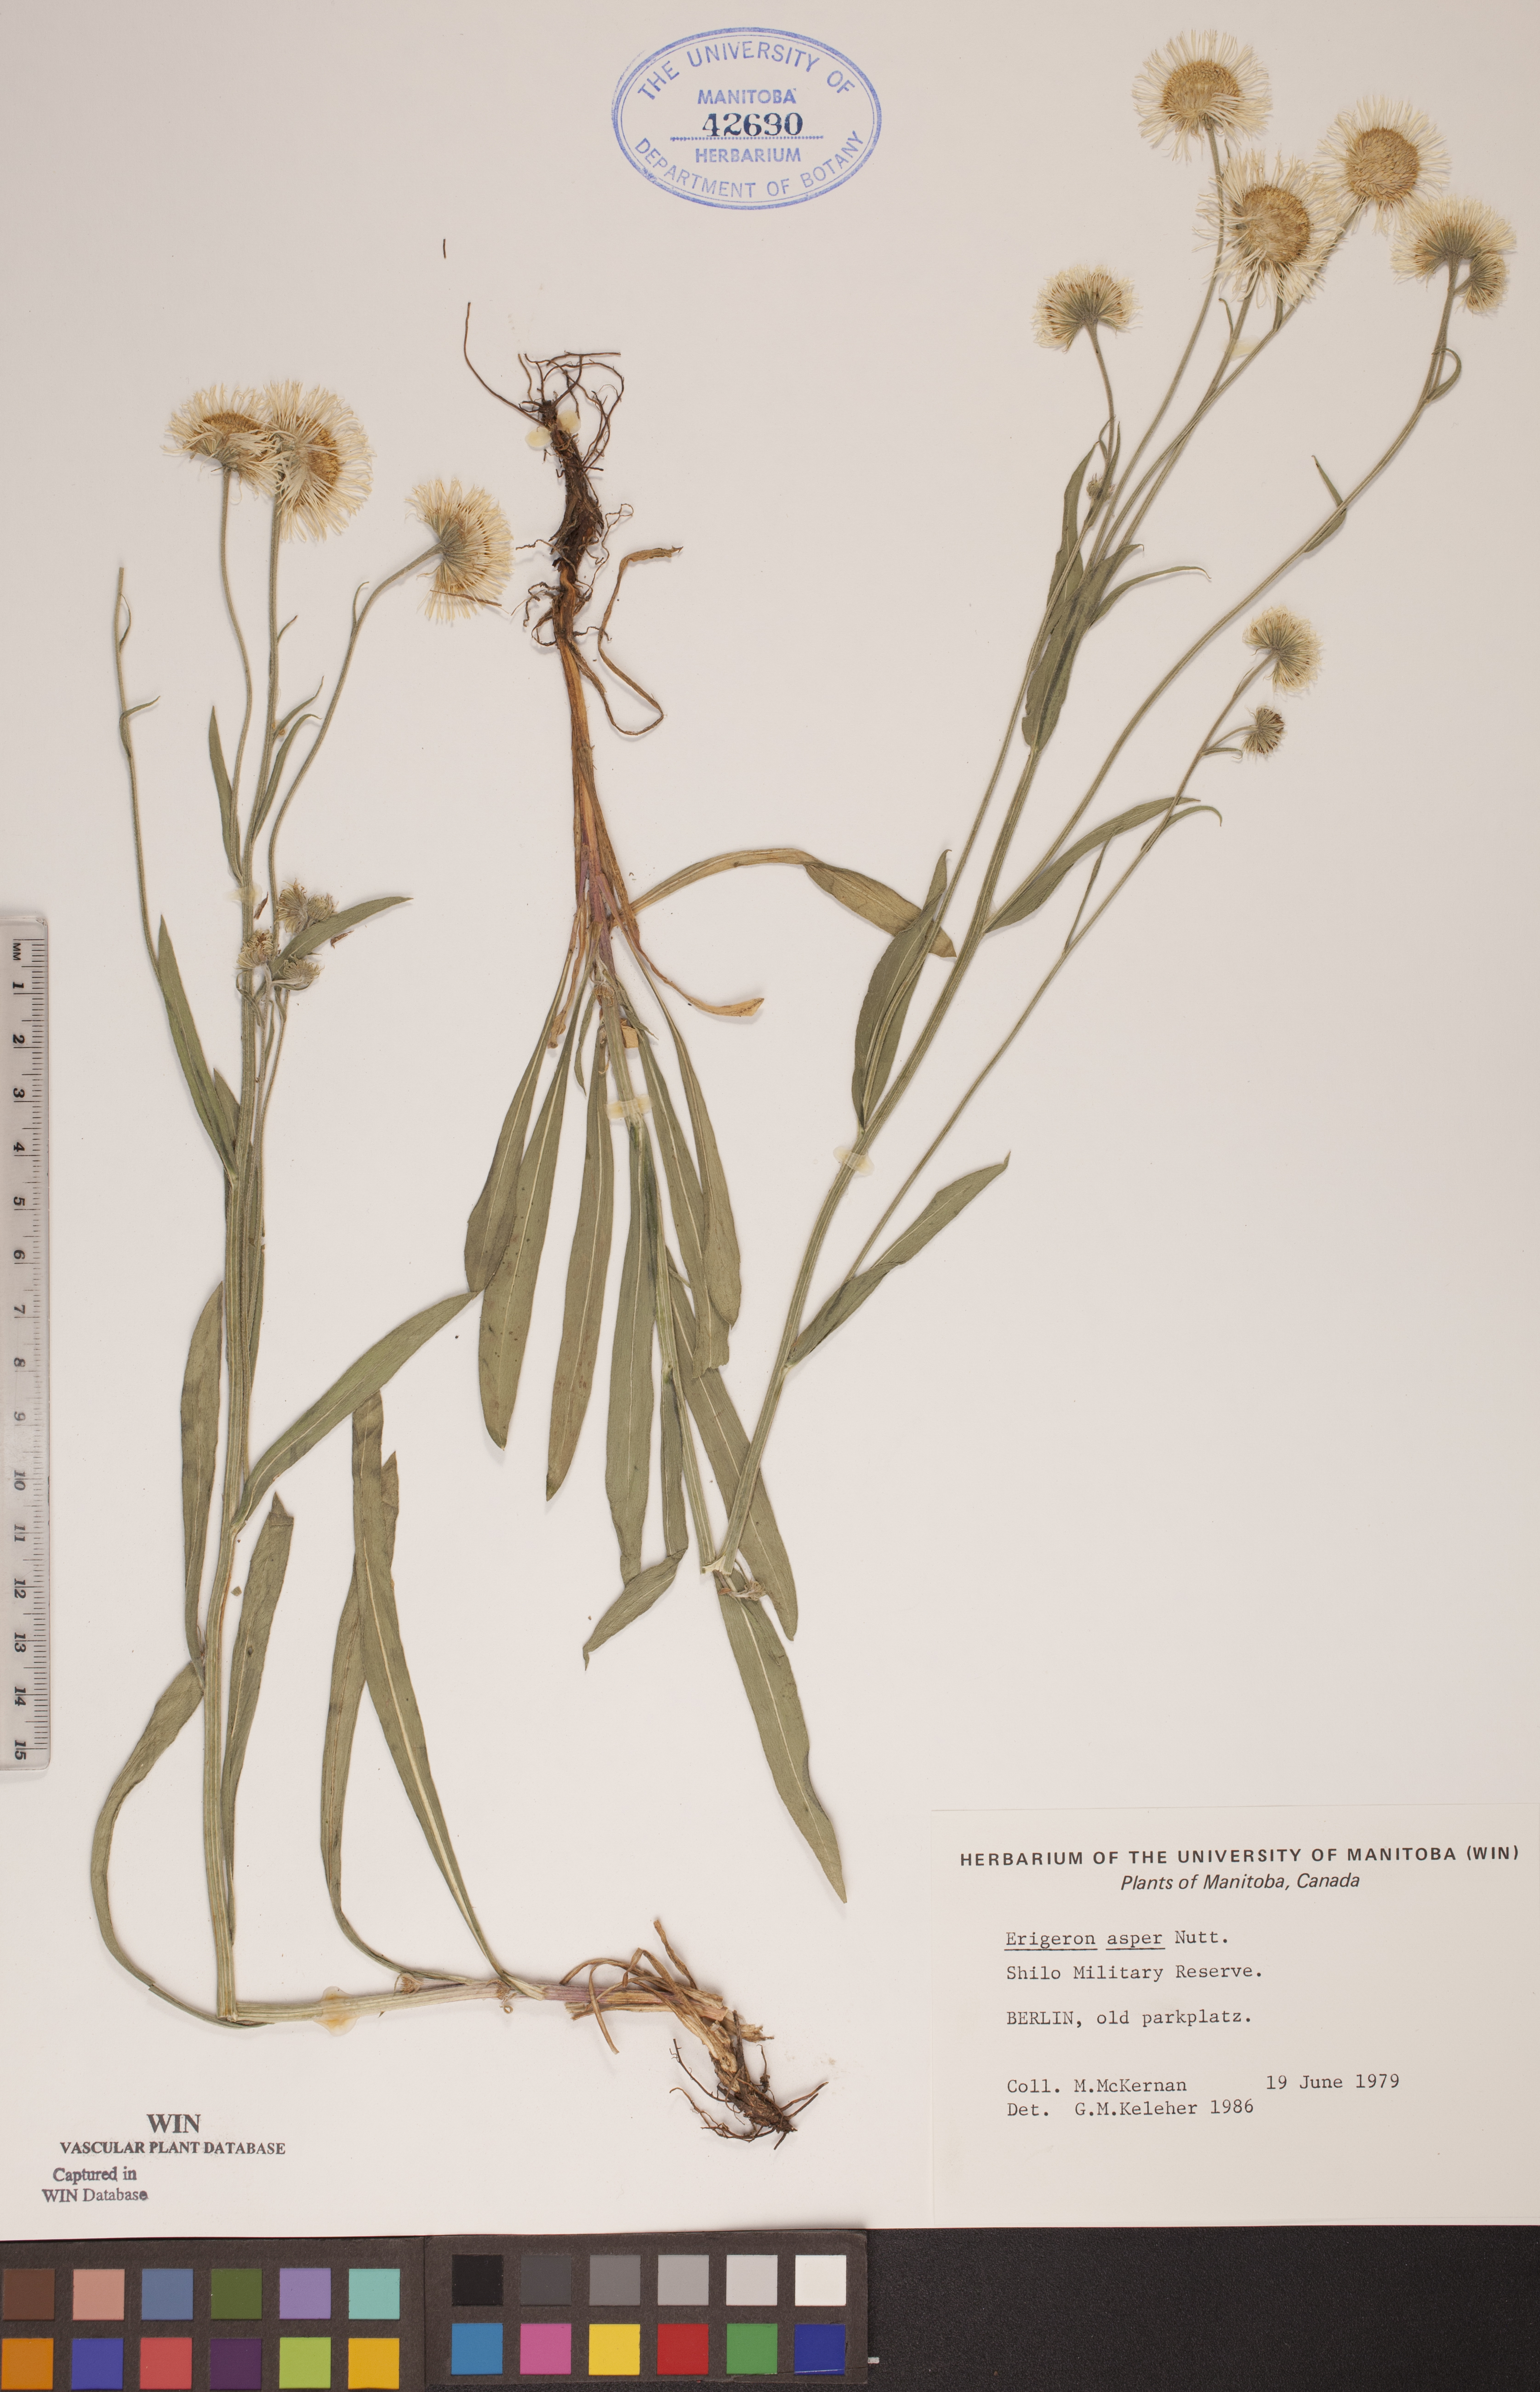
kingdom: Plantae
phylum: Tracheophyta
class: Magnoliopsida
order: Asterales
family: Asteraceae
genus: Erigeron
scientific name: Erigeron glabellus
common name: Smooth fleabane
